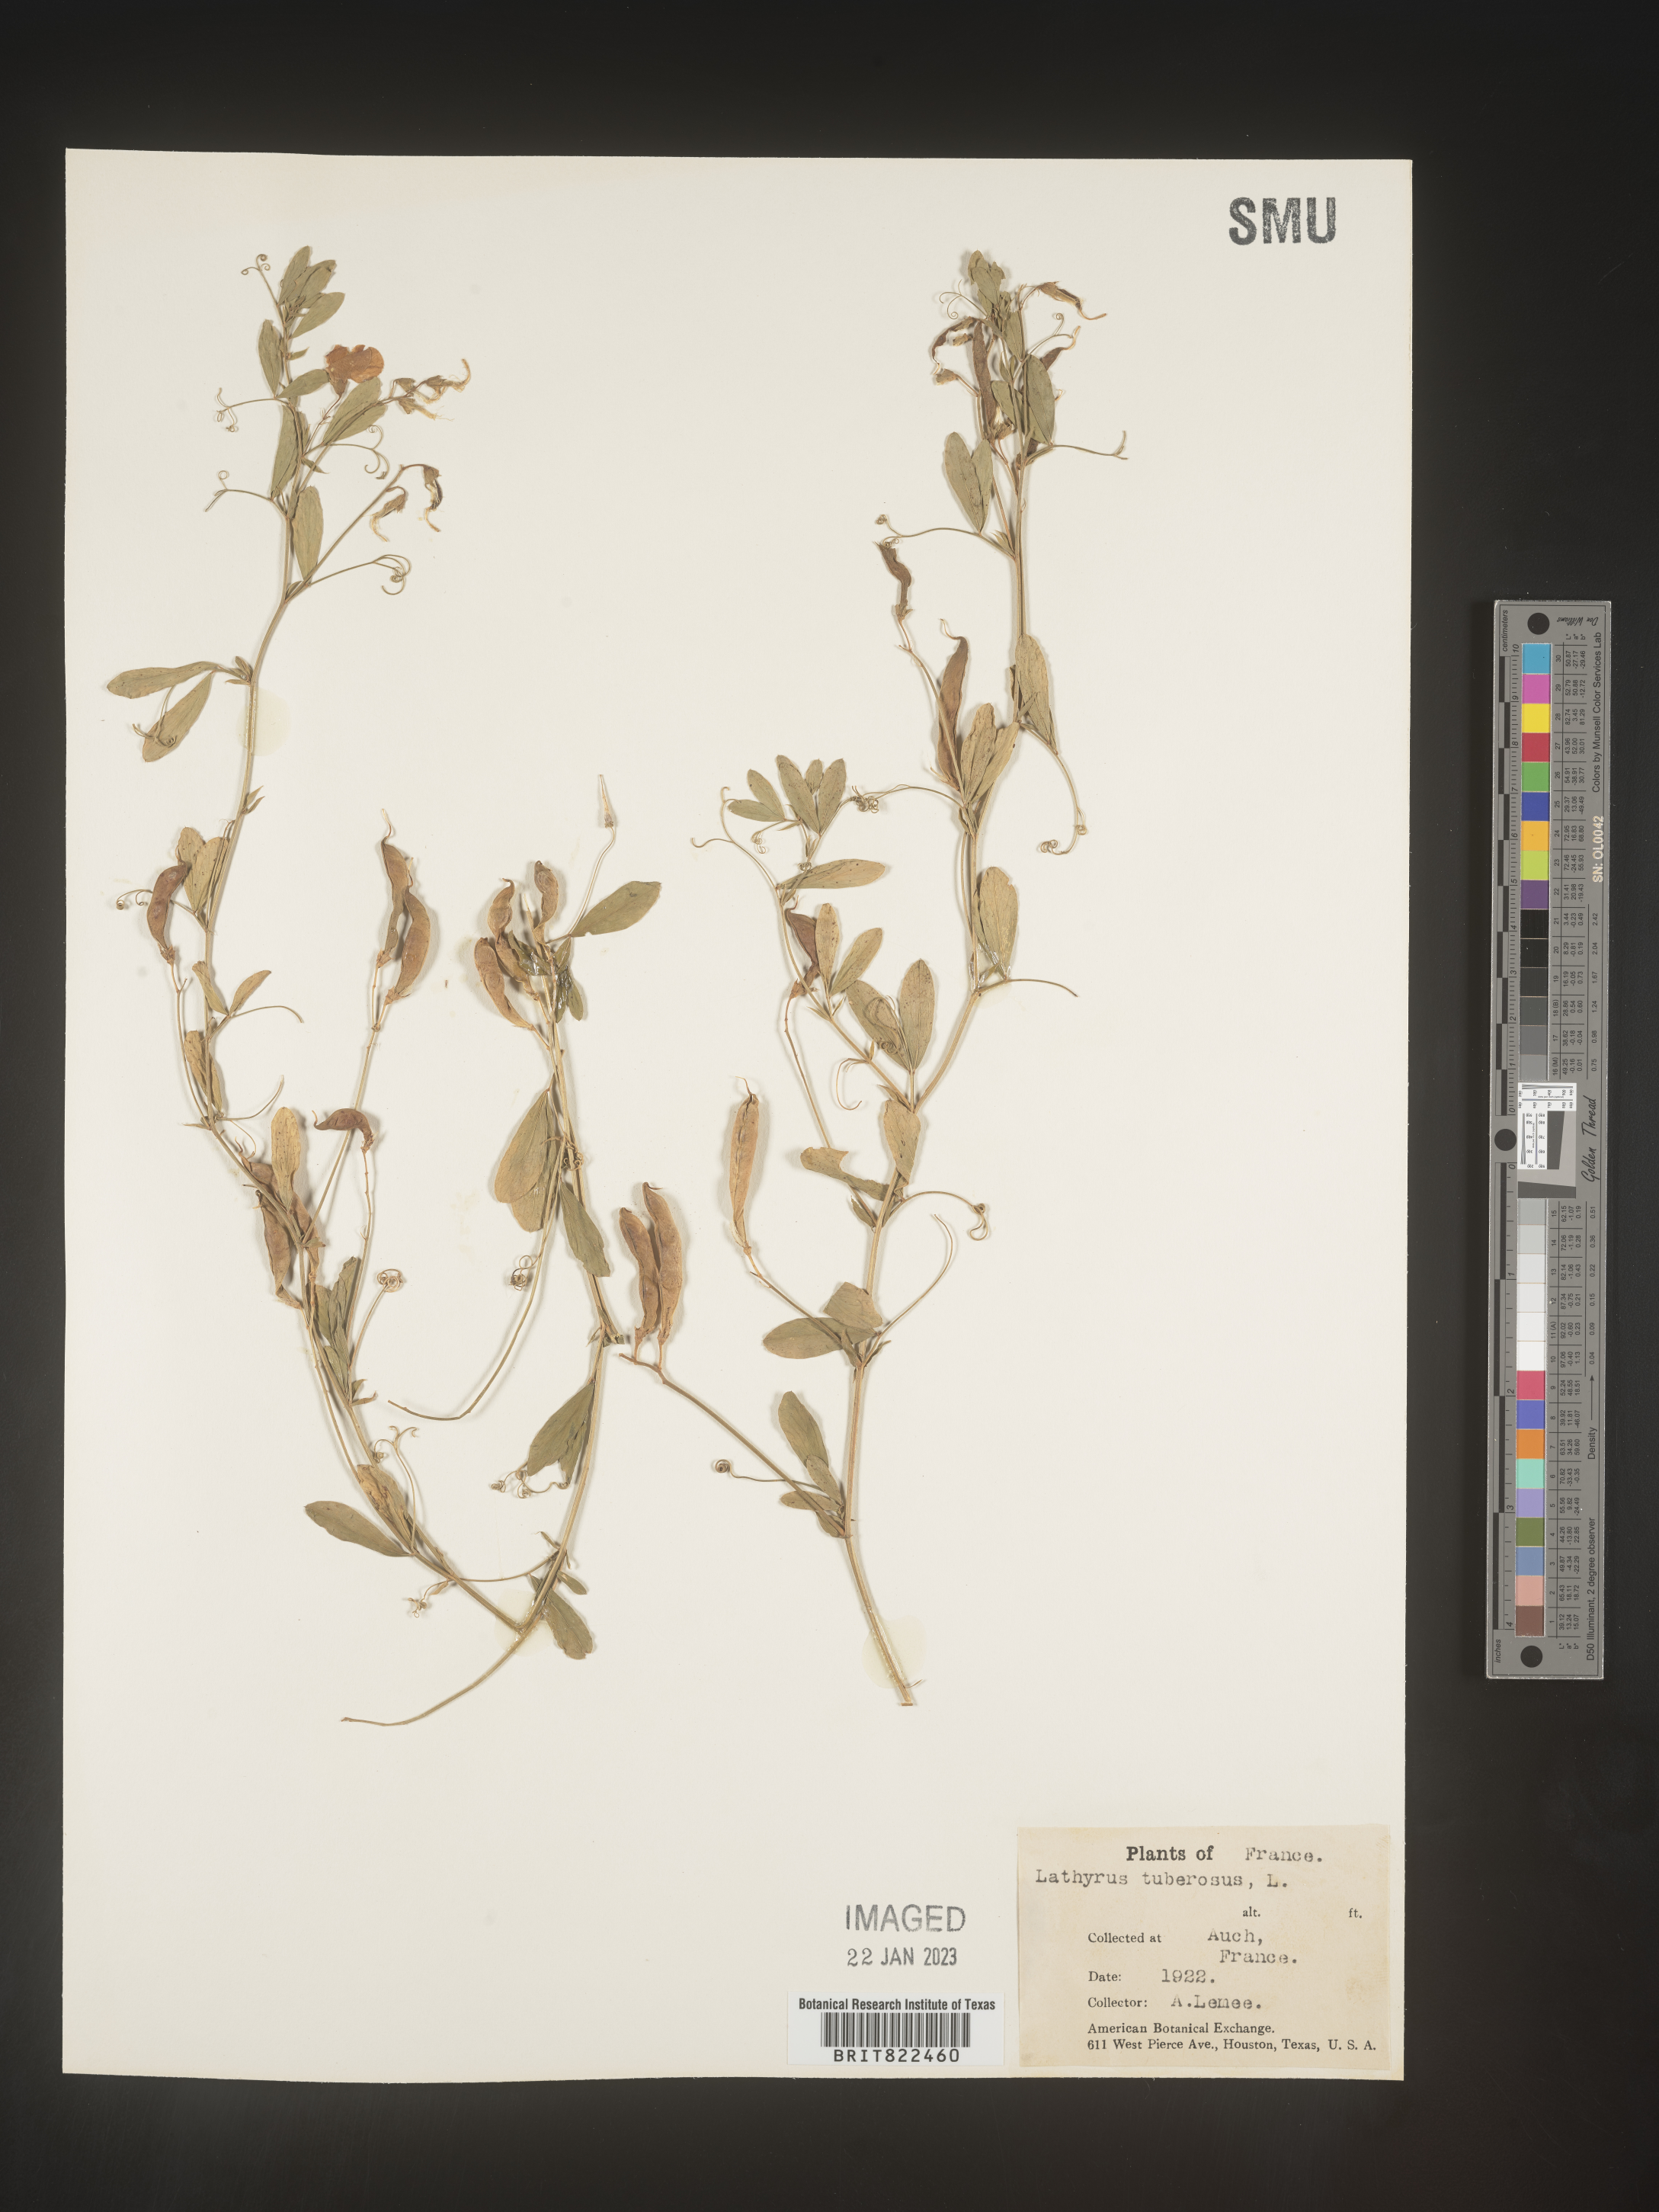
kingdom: Plantae
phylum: Tracheophyta
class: Magnoliopsida
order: Fabales
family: Fabaceae
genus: Lathyrus
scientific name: Lathyrus
